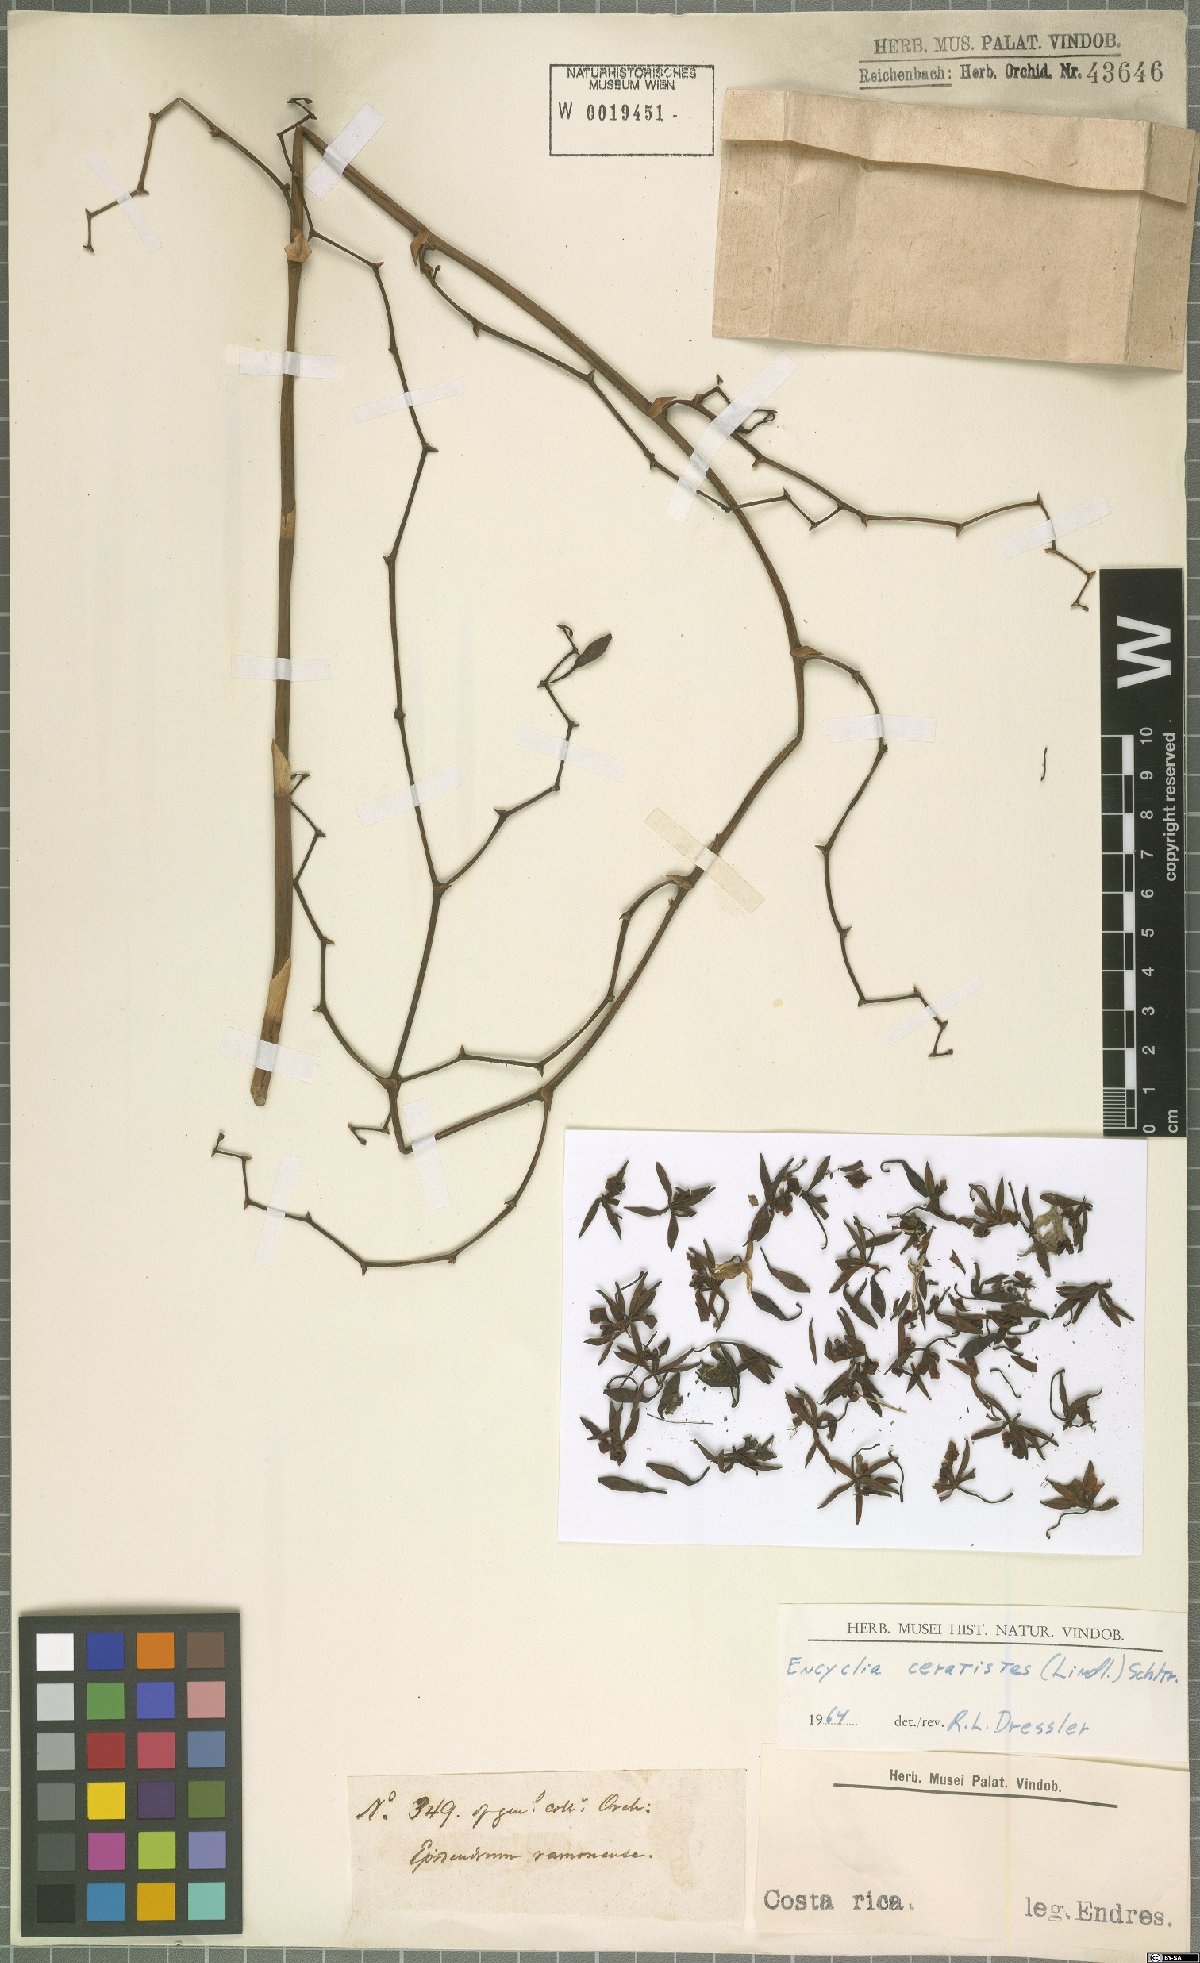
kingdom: Plantae
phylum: Tracheophyta
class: Liliopsida
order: Asparagales
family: Orchidaceae
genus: Encyclia
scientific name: Encyclia ceratistes
